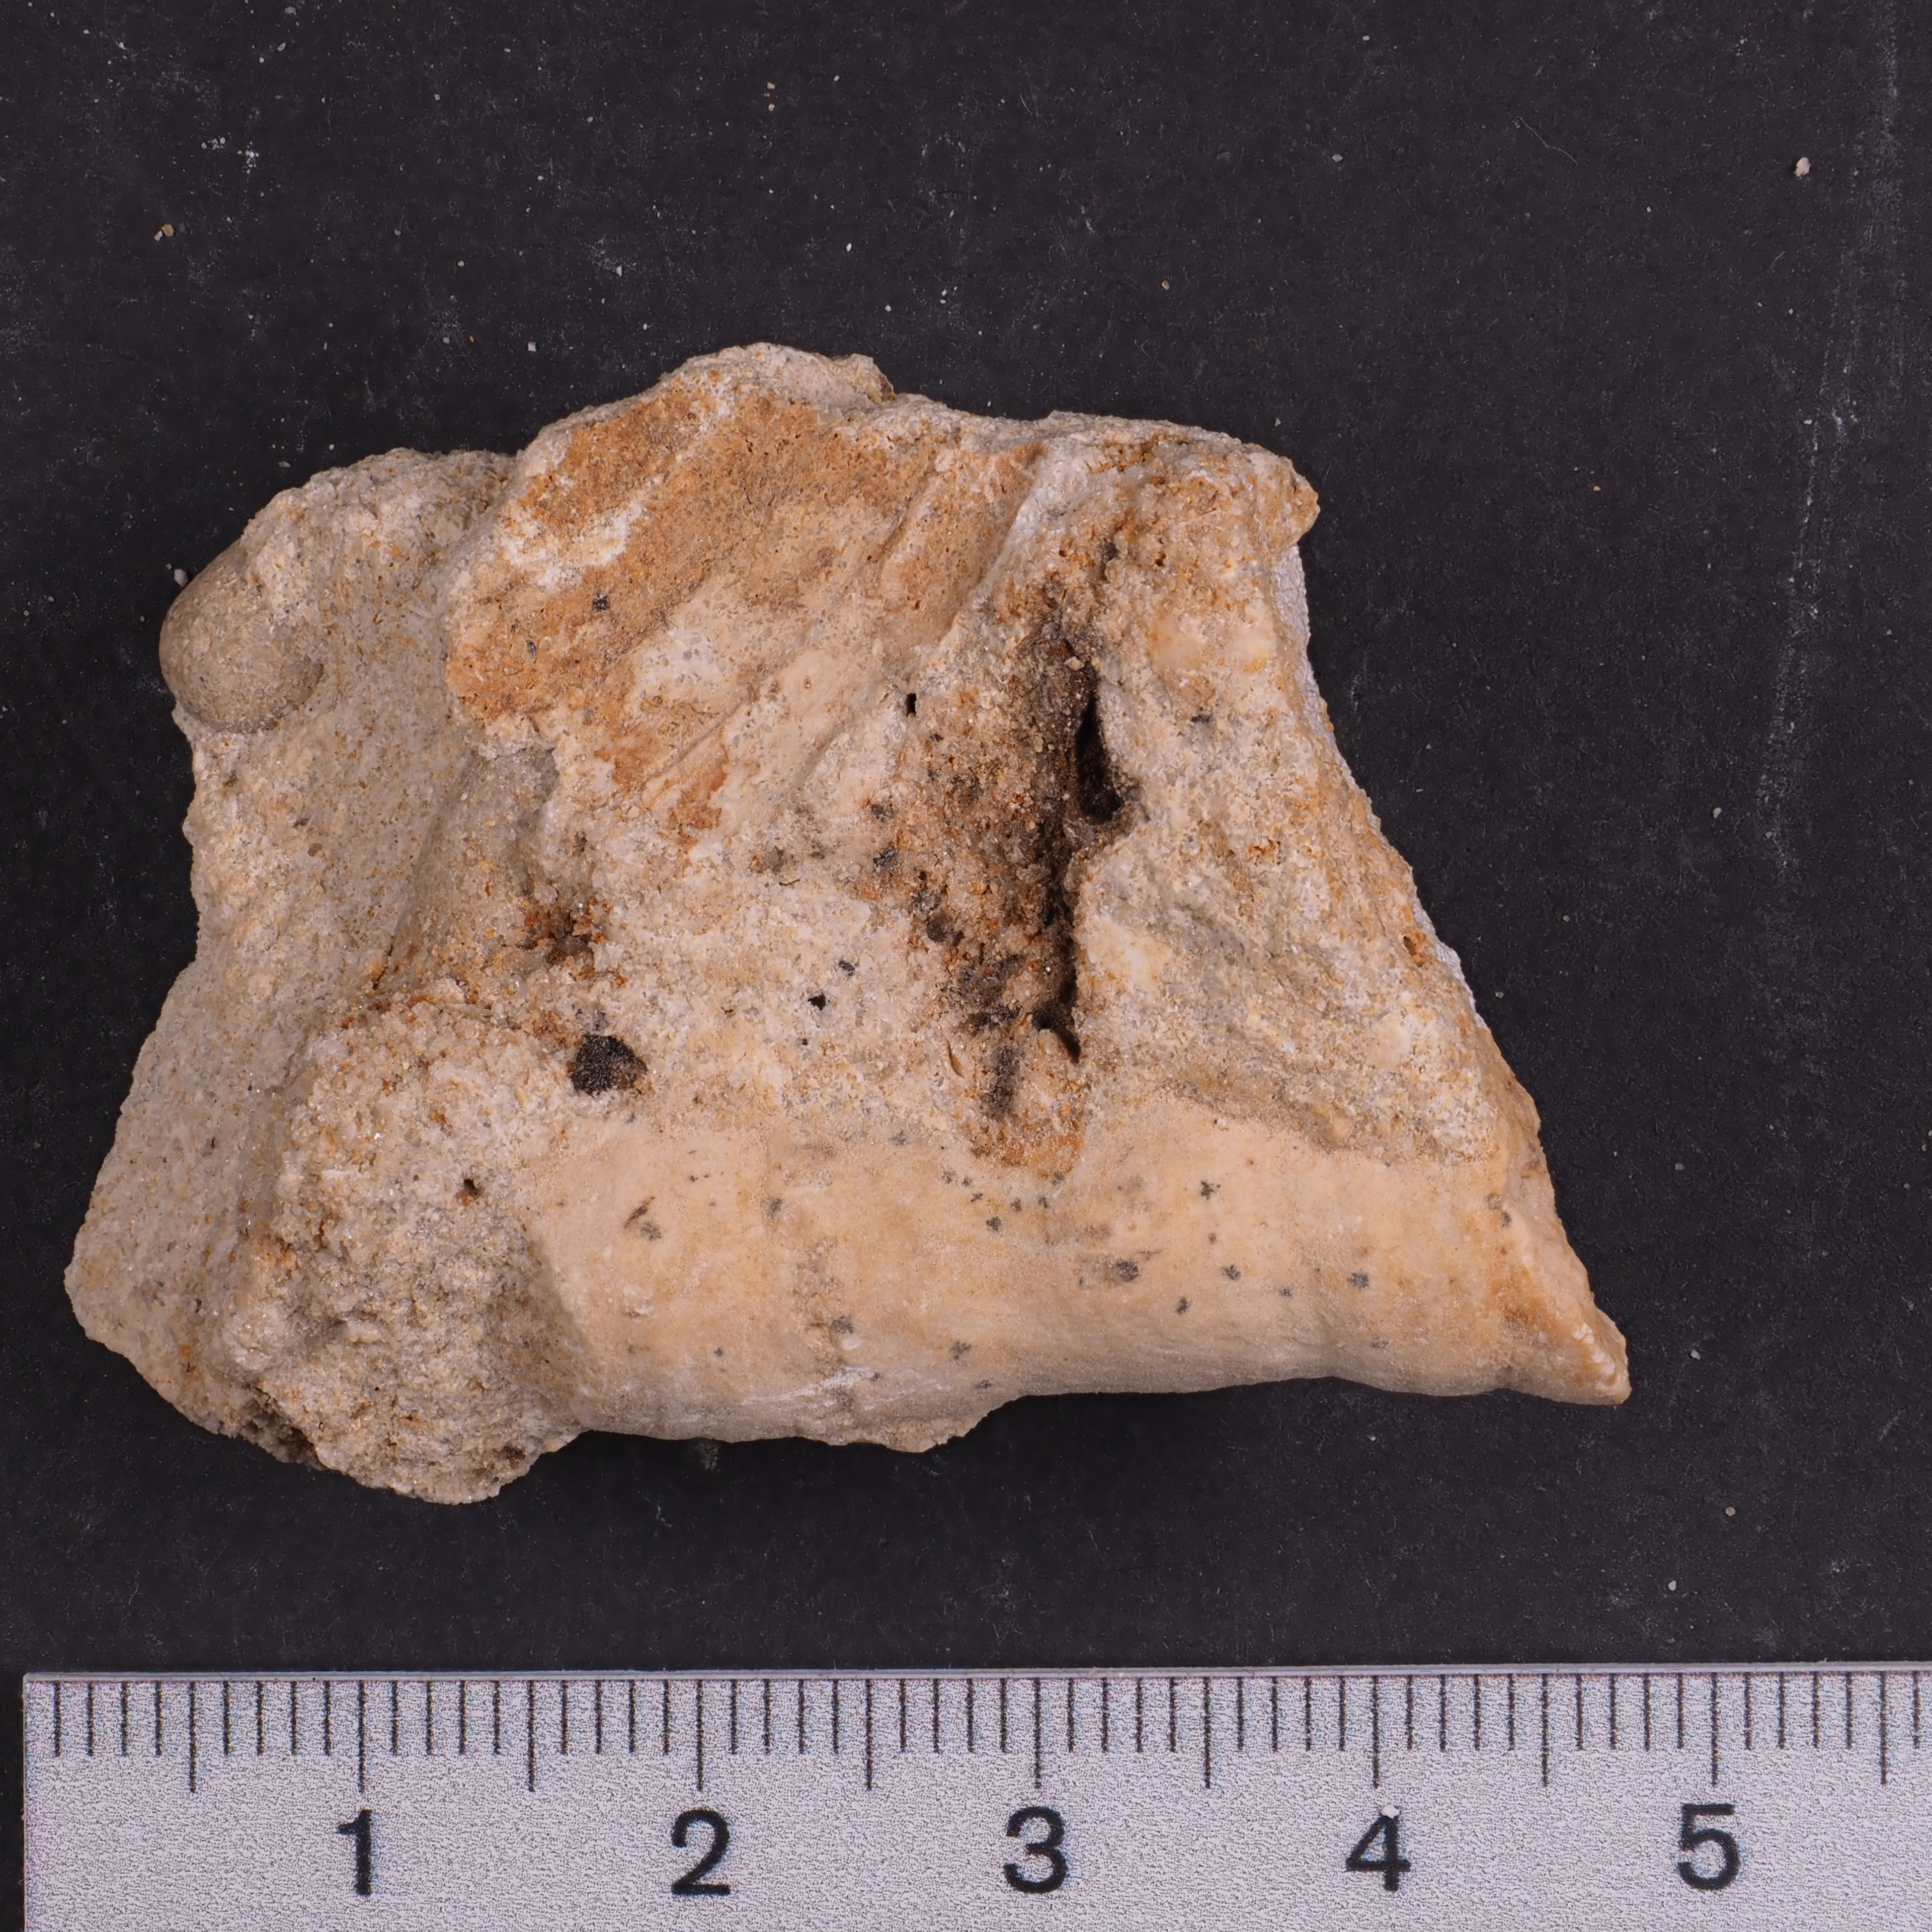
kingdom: Animalia
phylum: Cnidaria
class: Anthozoa
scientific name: Anthozoa
